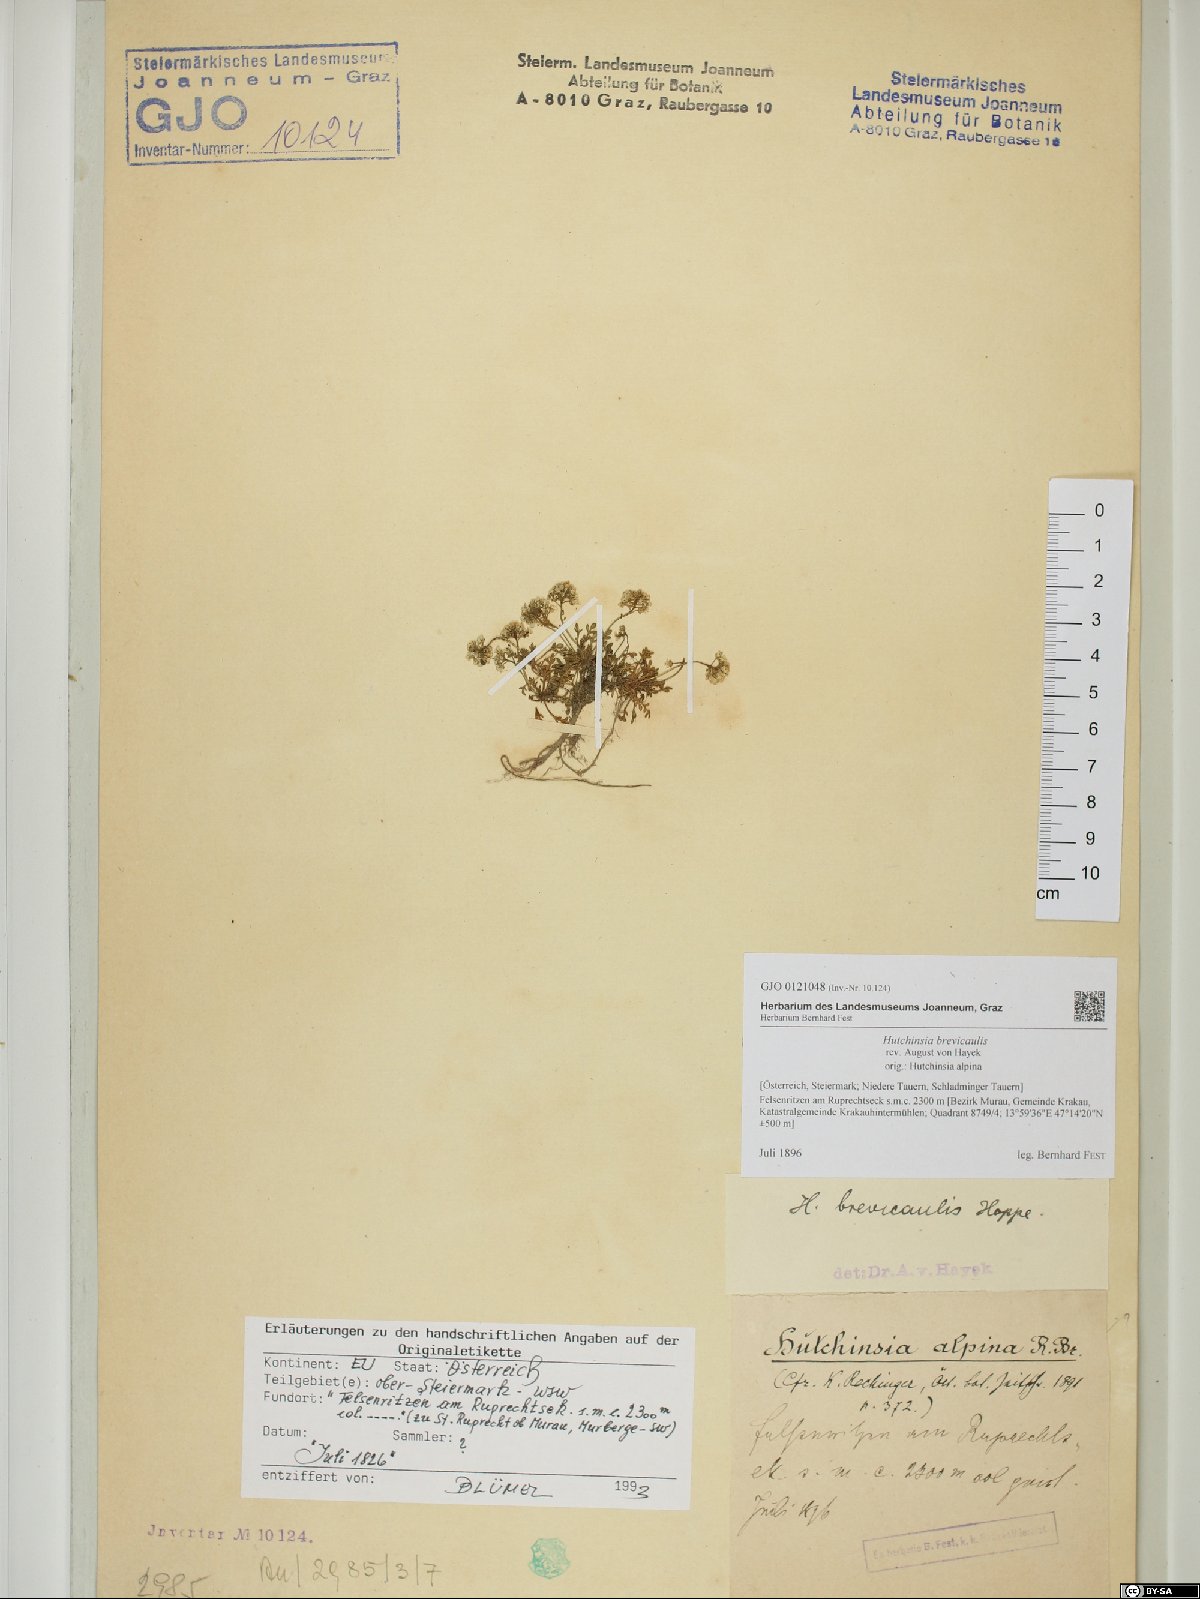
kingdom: Plantae
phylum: Tracheophyta
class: Magnoliopsida
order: Brassicales
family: Brassicaceae
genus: Hornungia
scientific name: Hornungia alpina
